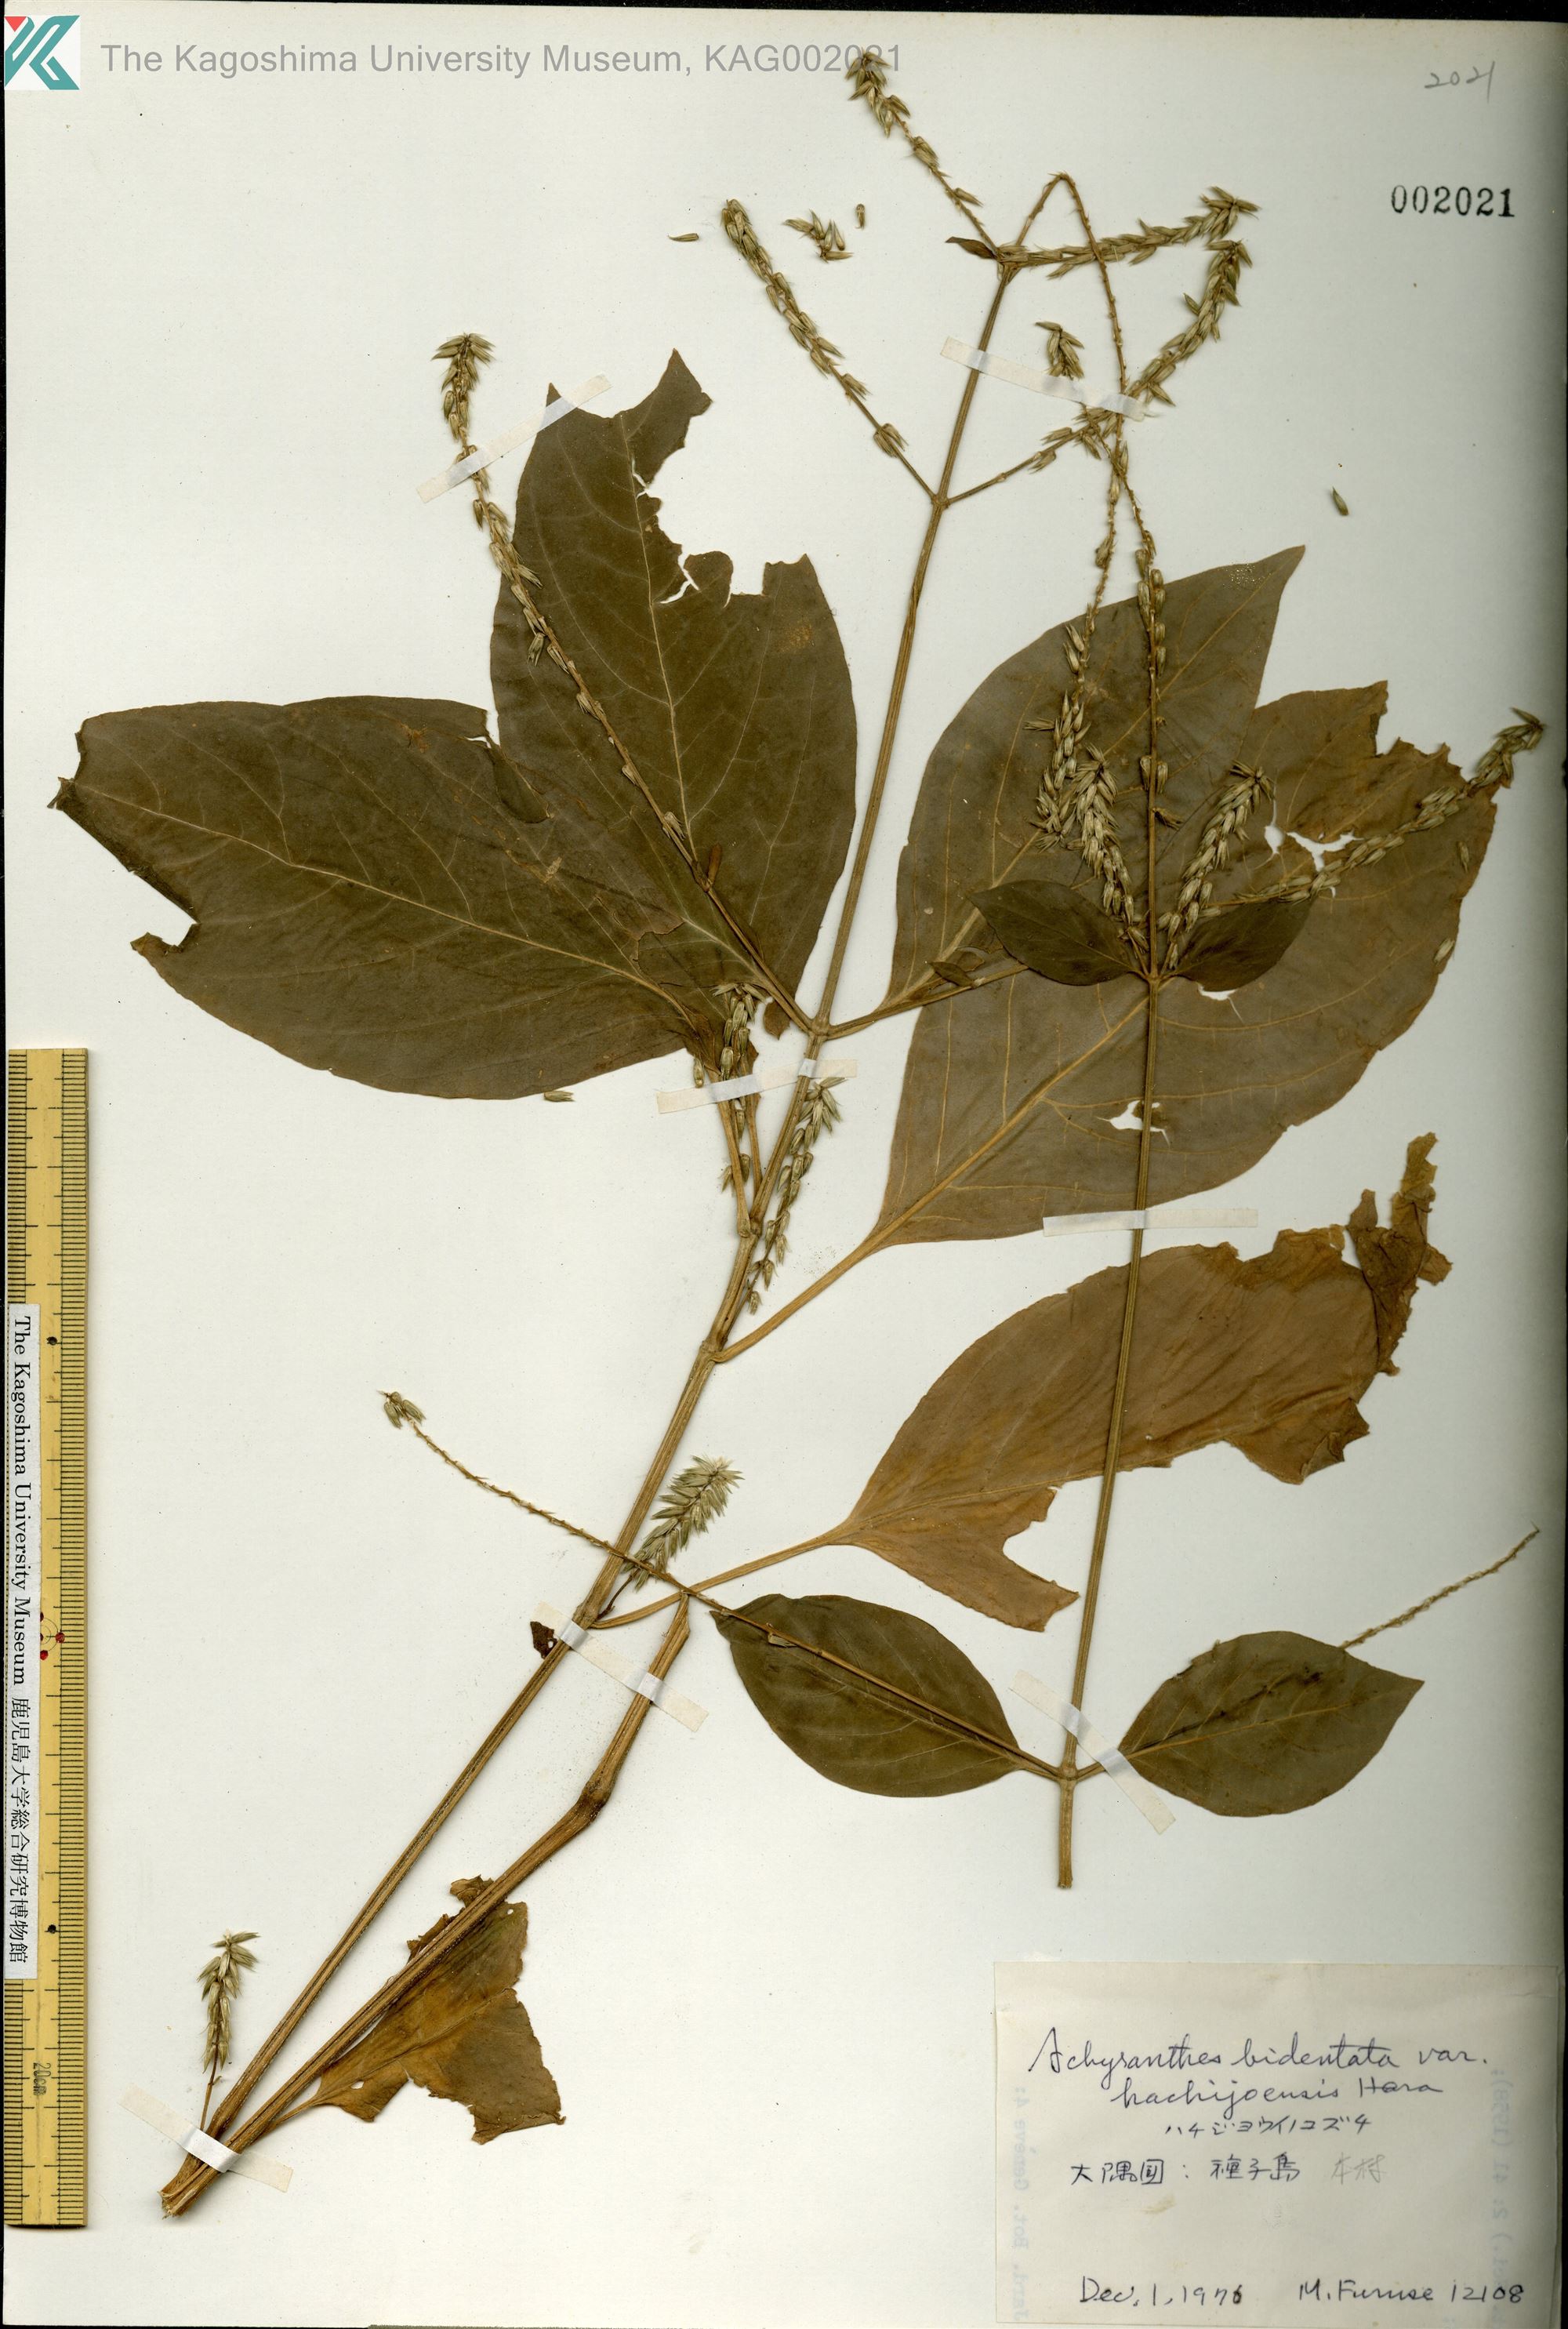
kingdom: Plantae
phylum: Tracheophyta
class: Magnoliopsida
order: Caryophyllales
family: Amaranthaceae
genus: Achyranthes
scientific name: Achyranthes bidentata
